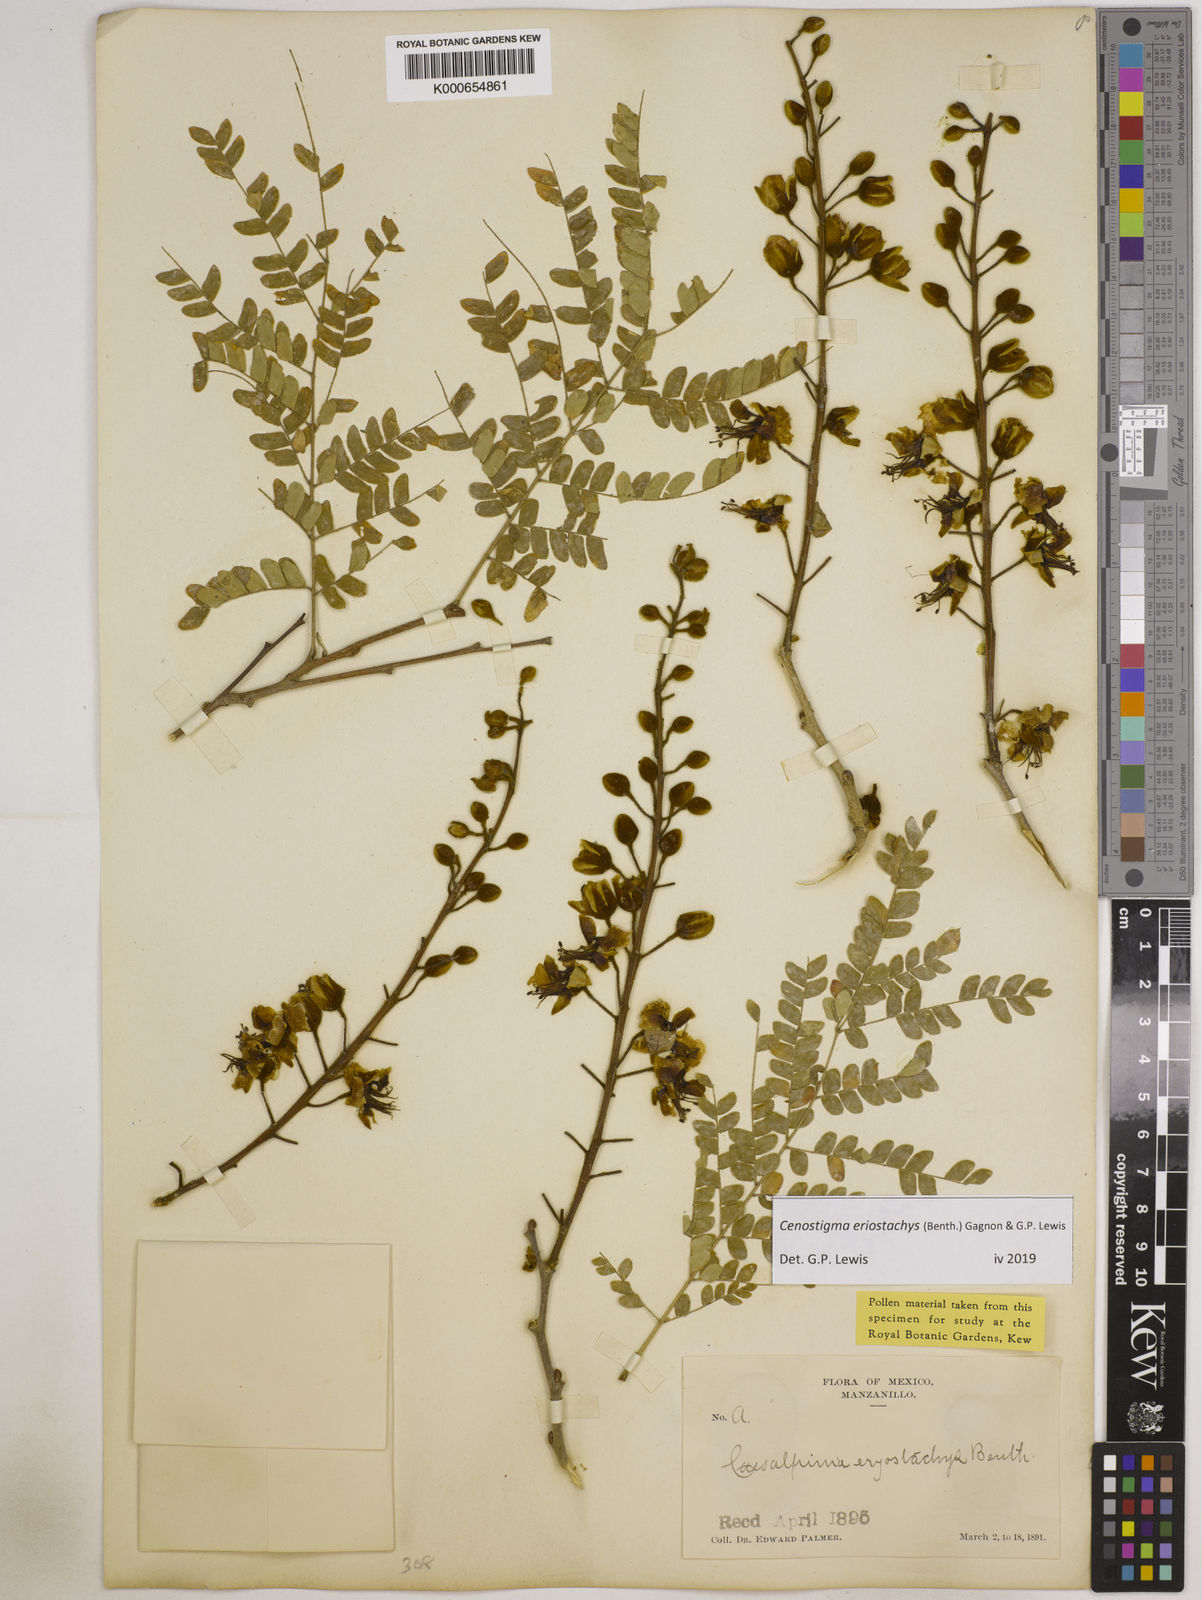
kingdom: Plantae
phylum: Tracheophyta
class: Magnoliopsida
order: Fabales
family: Fabaceae
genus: Cenostigma
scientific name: Cenostigma eriostachys
